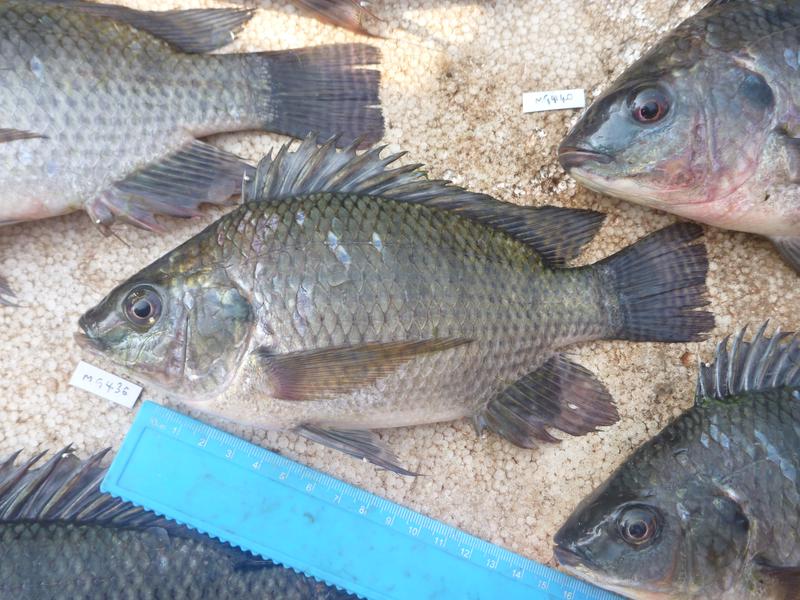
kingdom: Animalia
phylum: Chordata
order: Perciformes
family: Cichlidae
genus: Oreochromis
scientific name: Oreochromis niloticus
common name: Nile tilapia
